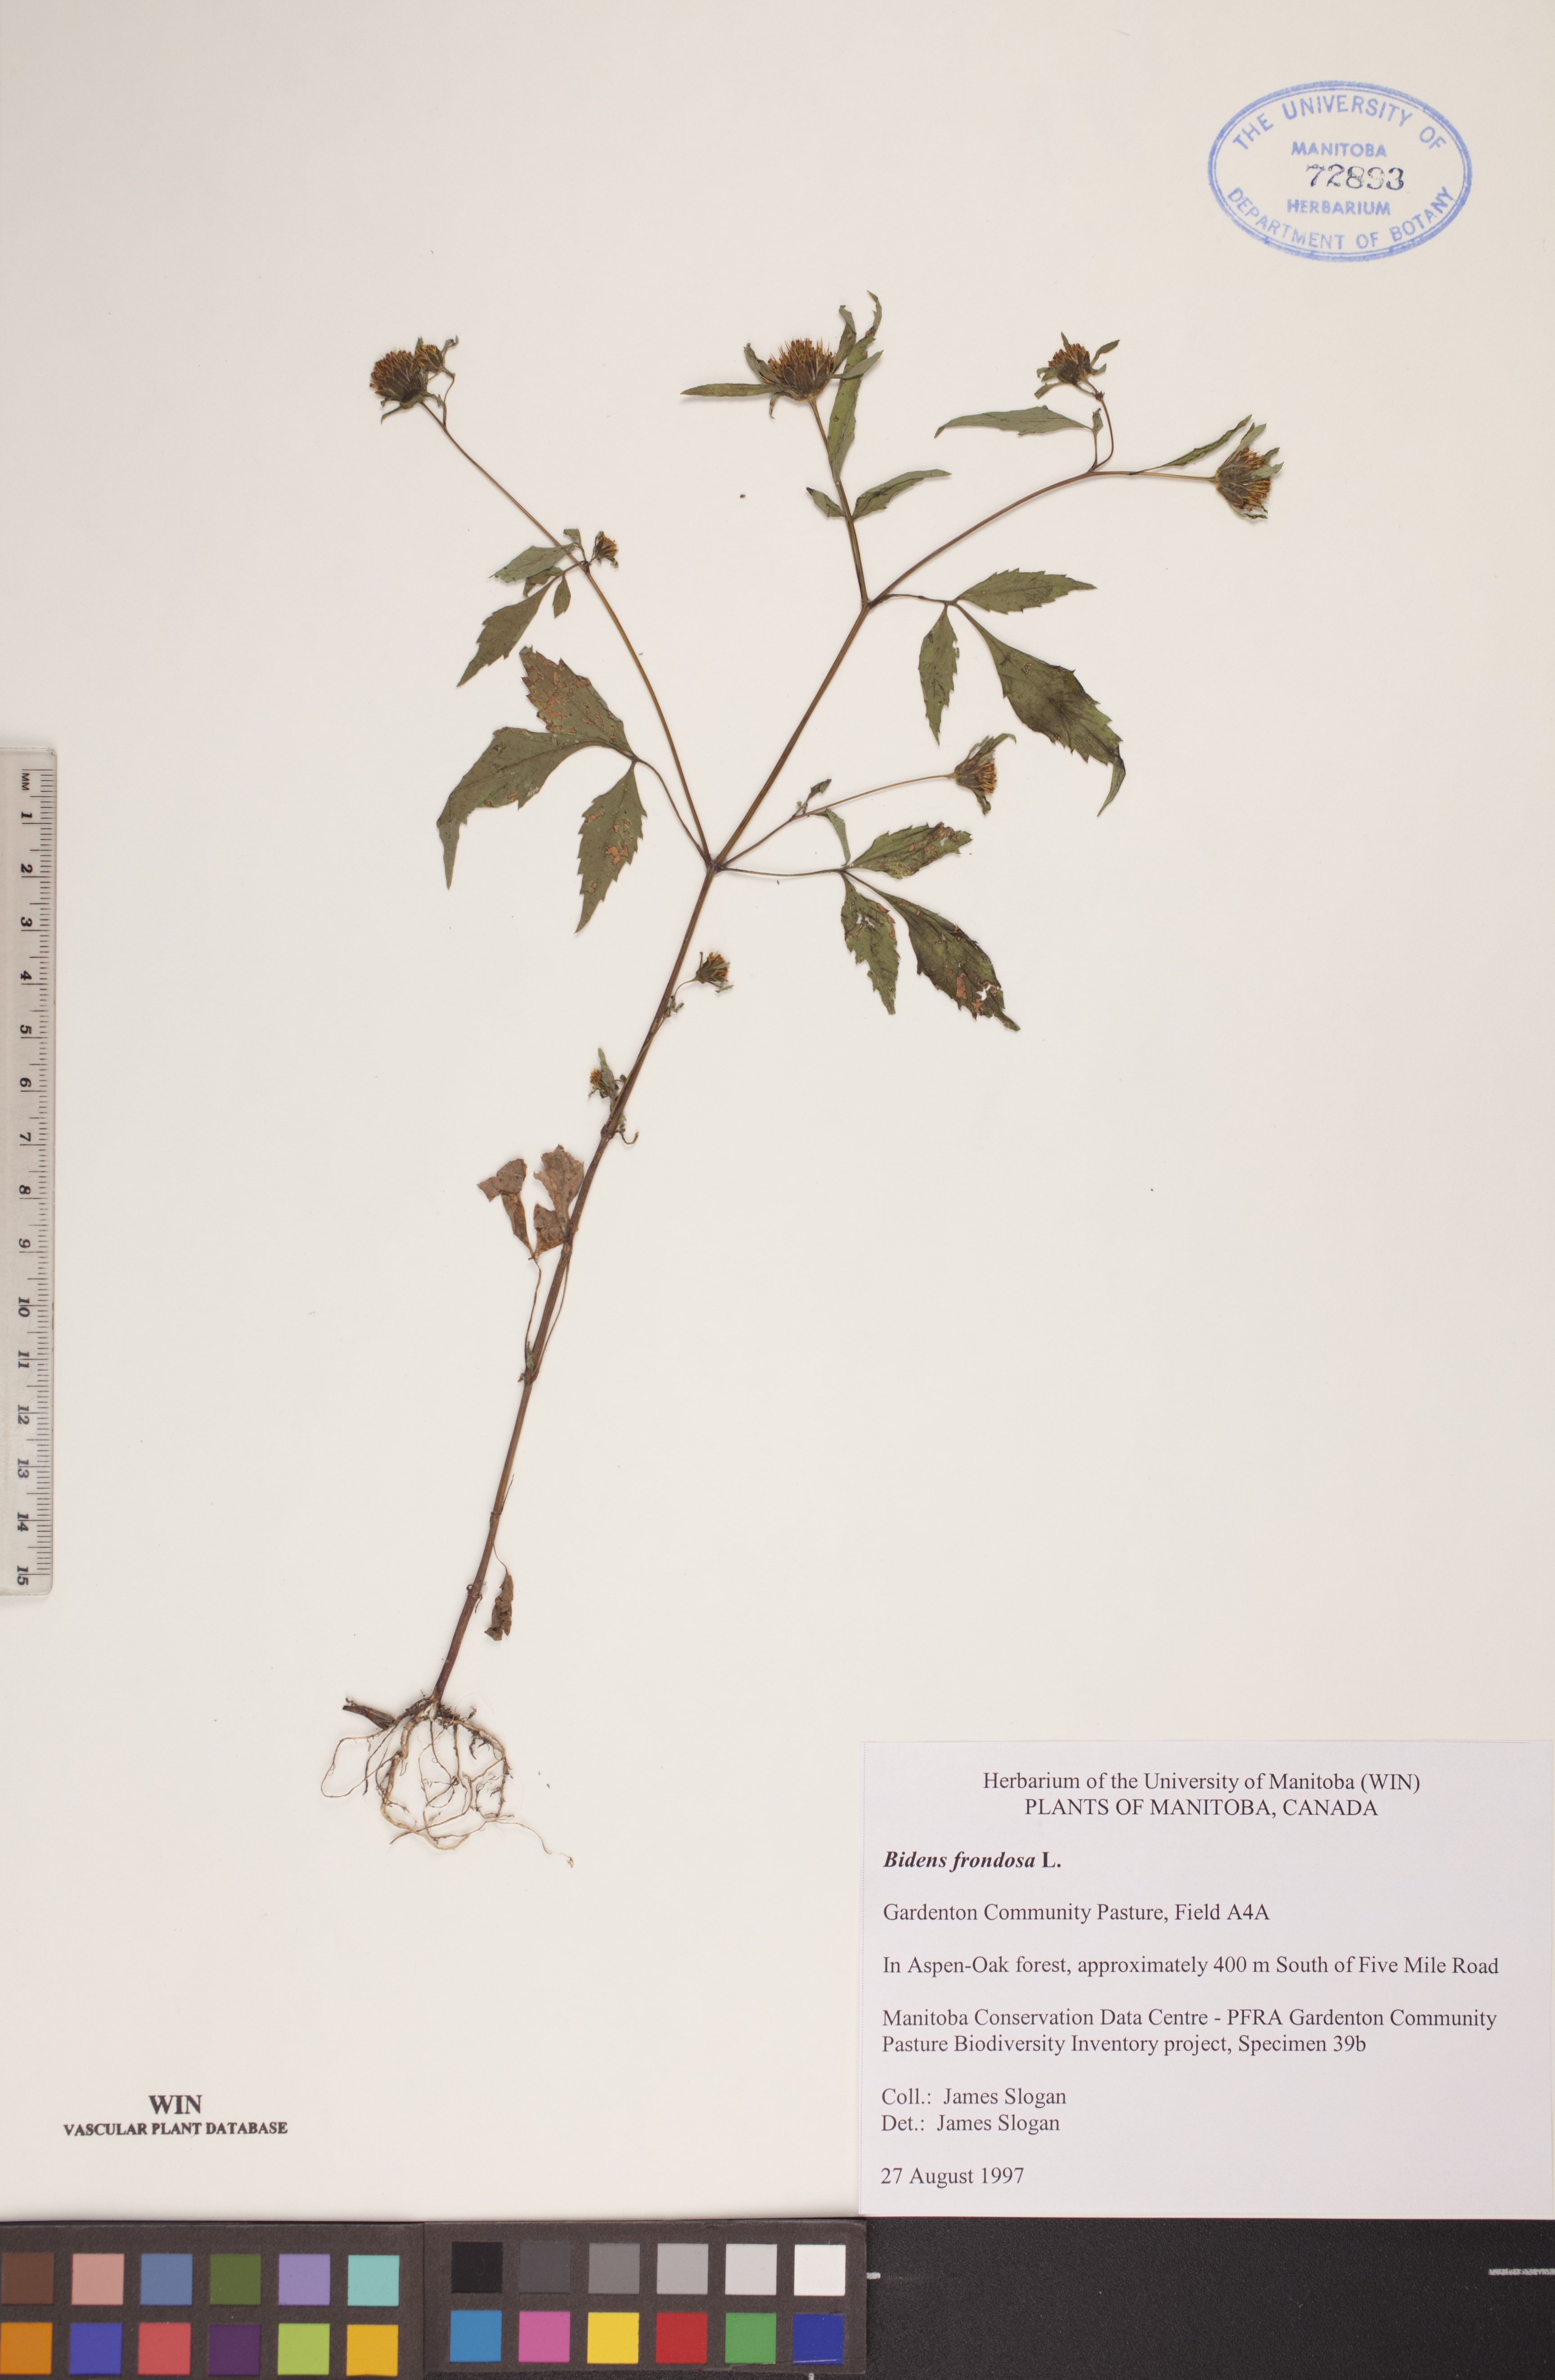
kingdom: Plantae
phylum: Tracheophyta
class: Magnoliopsida
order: Asterales
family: Asteraceae
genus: Bidens
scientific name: Bidens frondosa
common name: Beggarticks
